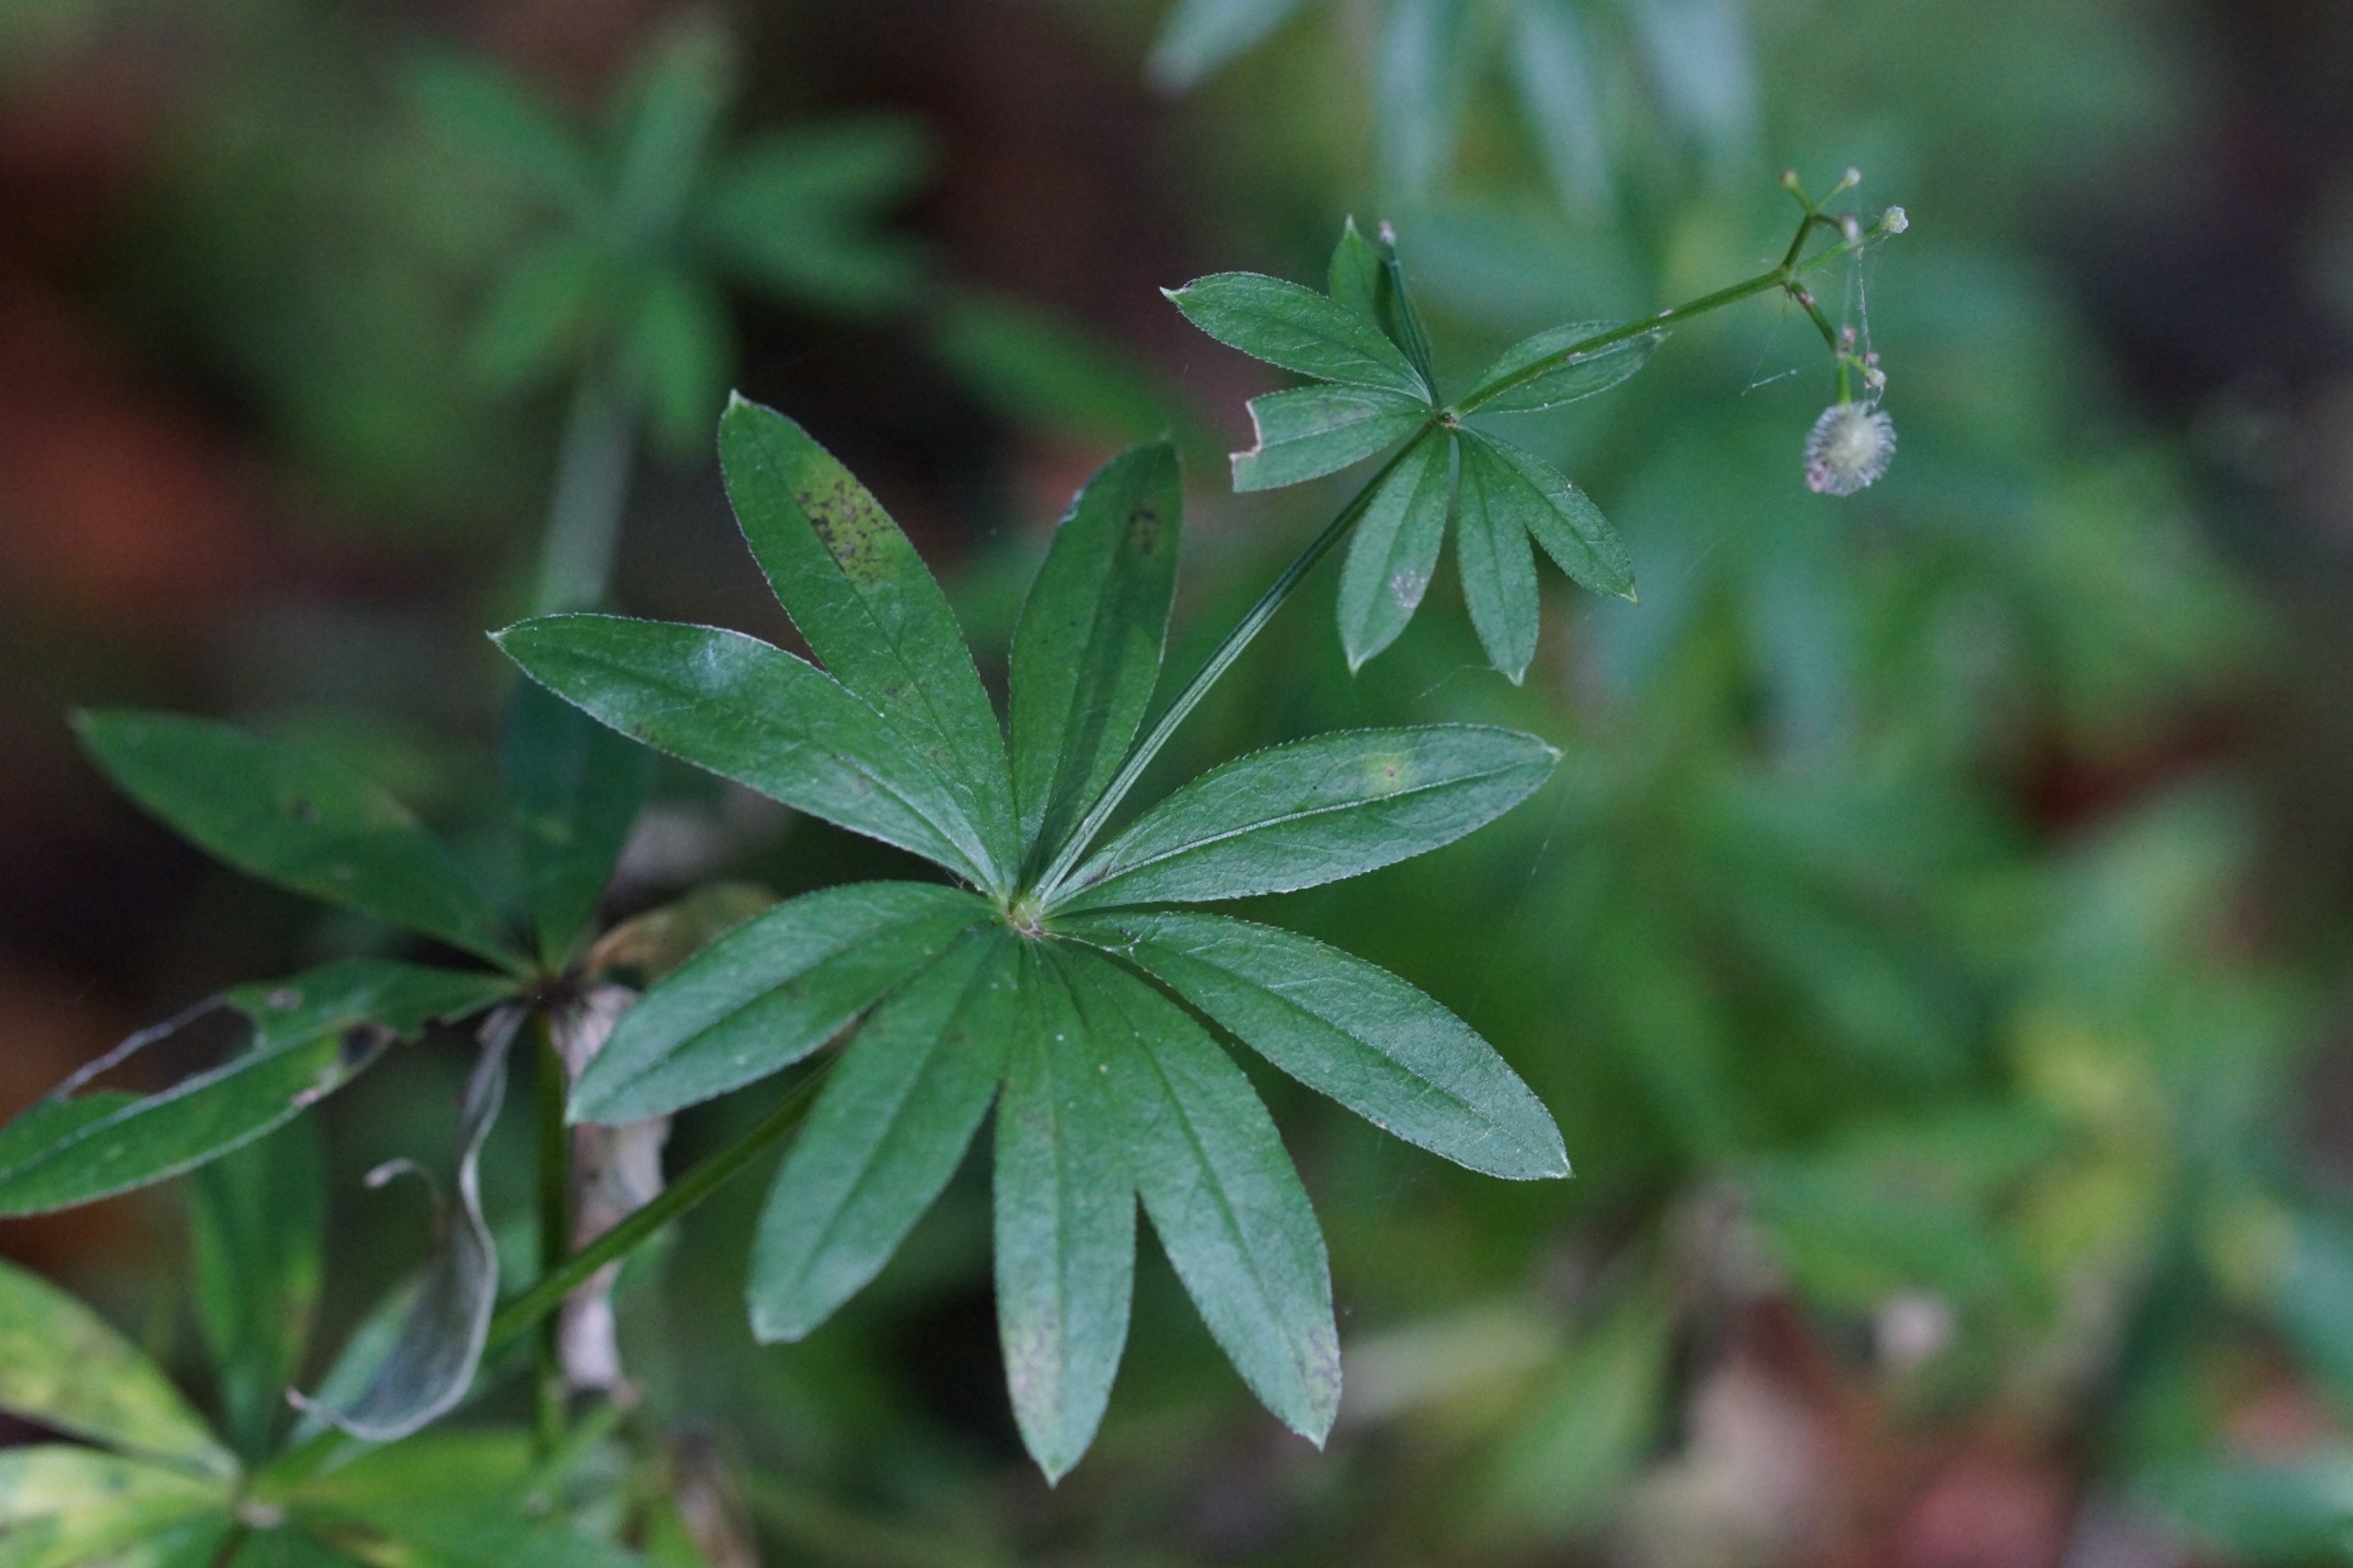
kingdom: Plantae
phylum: Tracheophyta
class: Magnoliopsida
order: Gentianales
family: Rubiaceae
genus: Galium
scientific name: Galium odoratum
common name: Skovmærke
